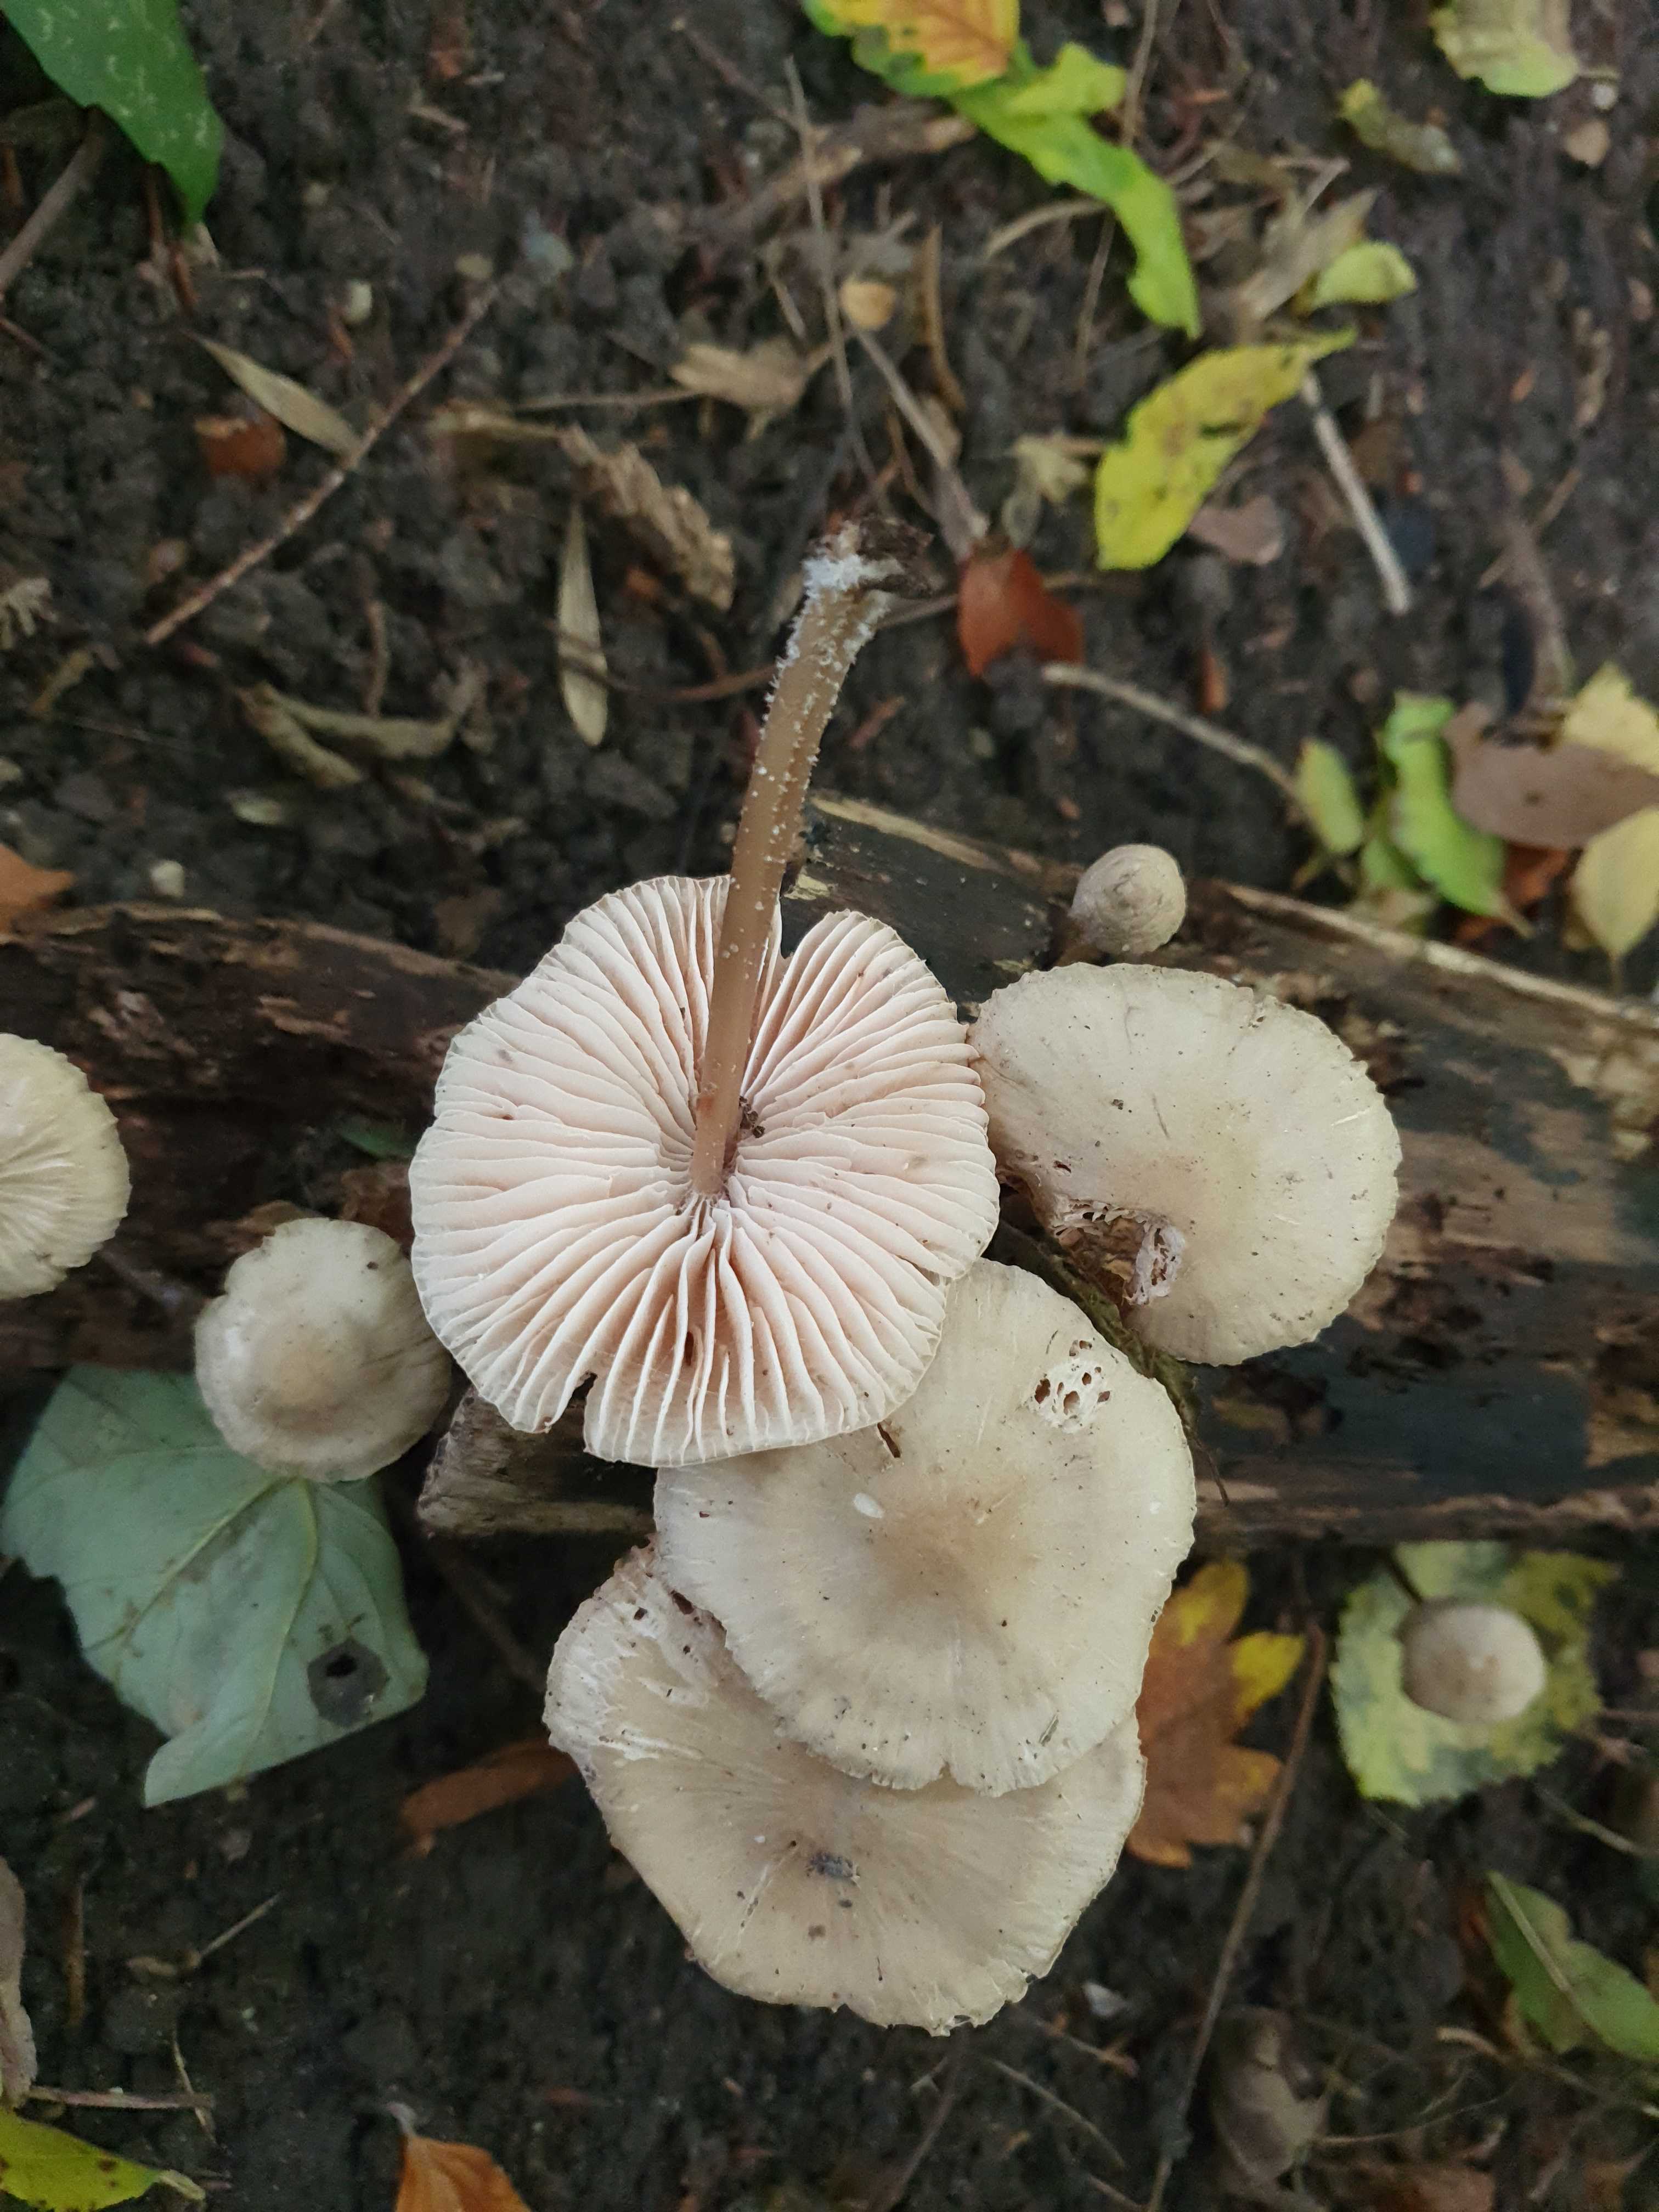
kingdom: Fungi
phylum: Basidiomycota
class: Agaricomycetes
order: Agaricales
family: Mycenaceae
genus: Mycena
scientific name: Mycena galericulata
